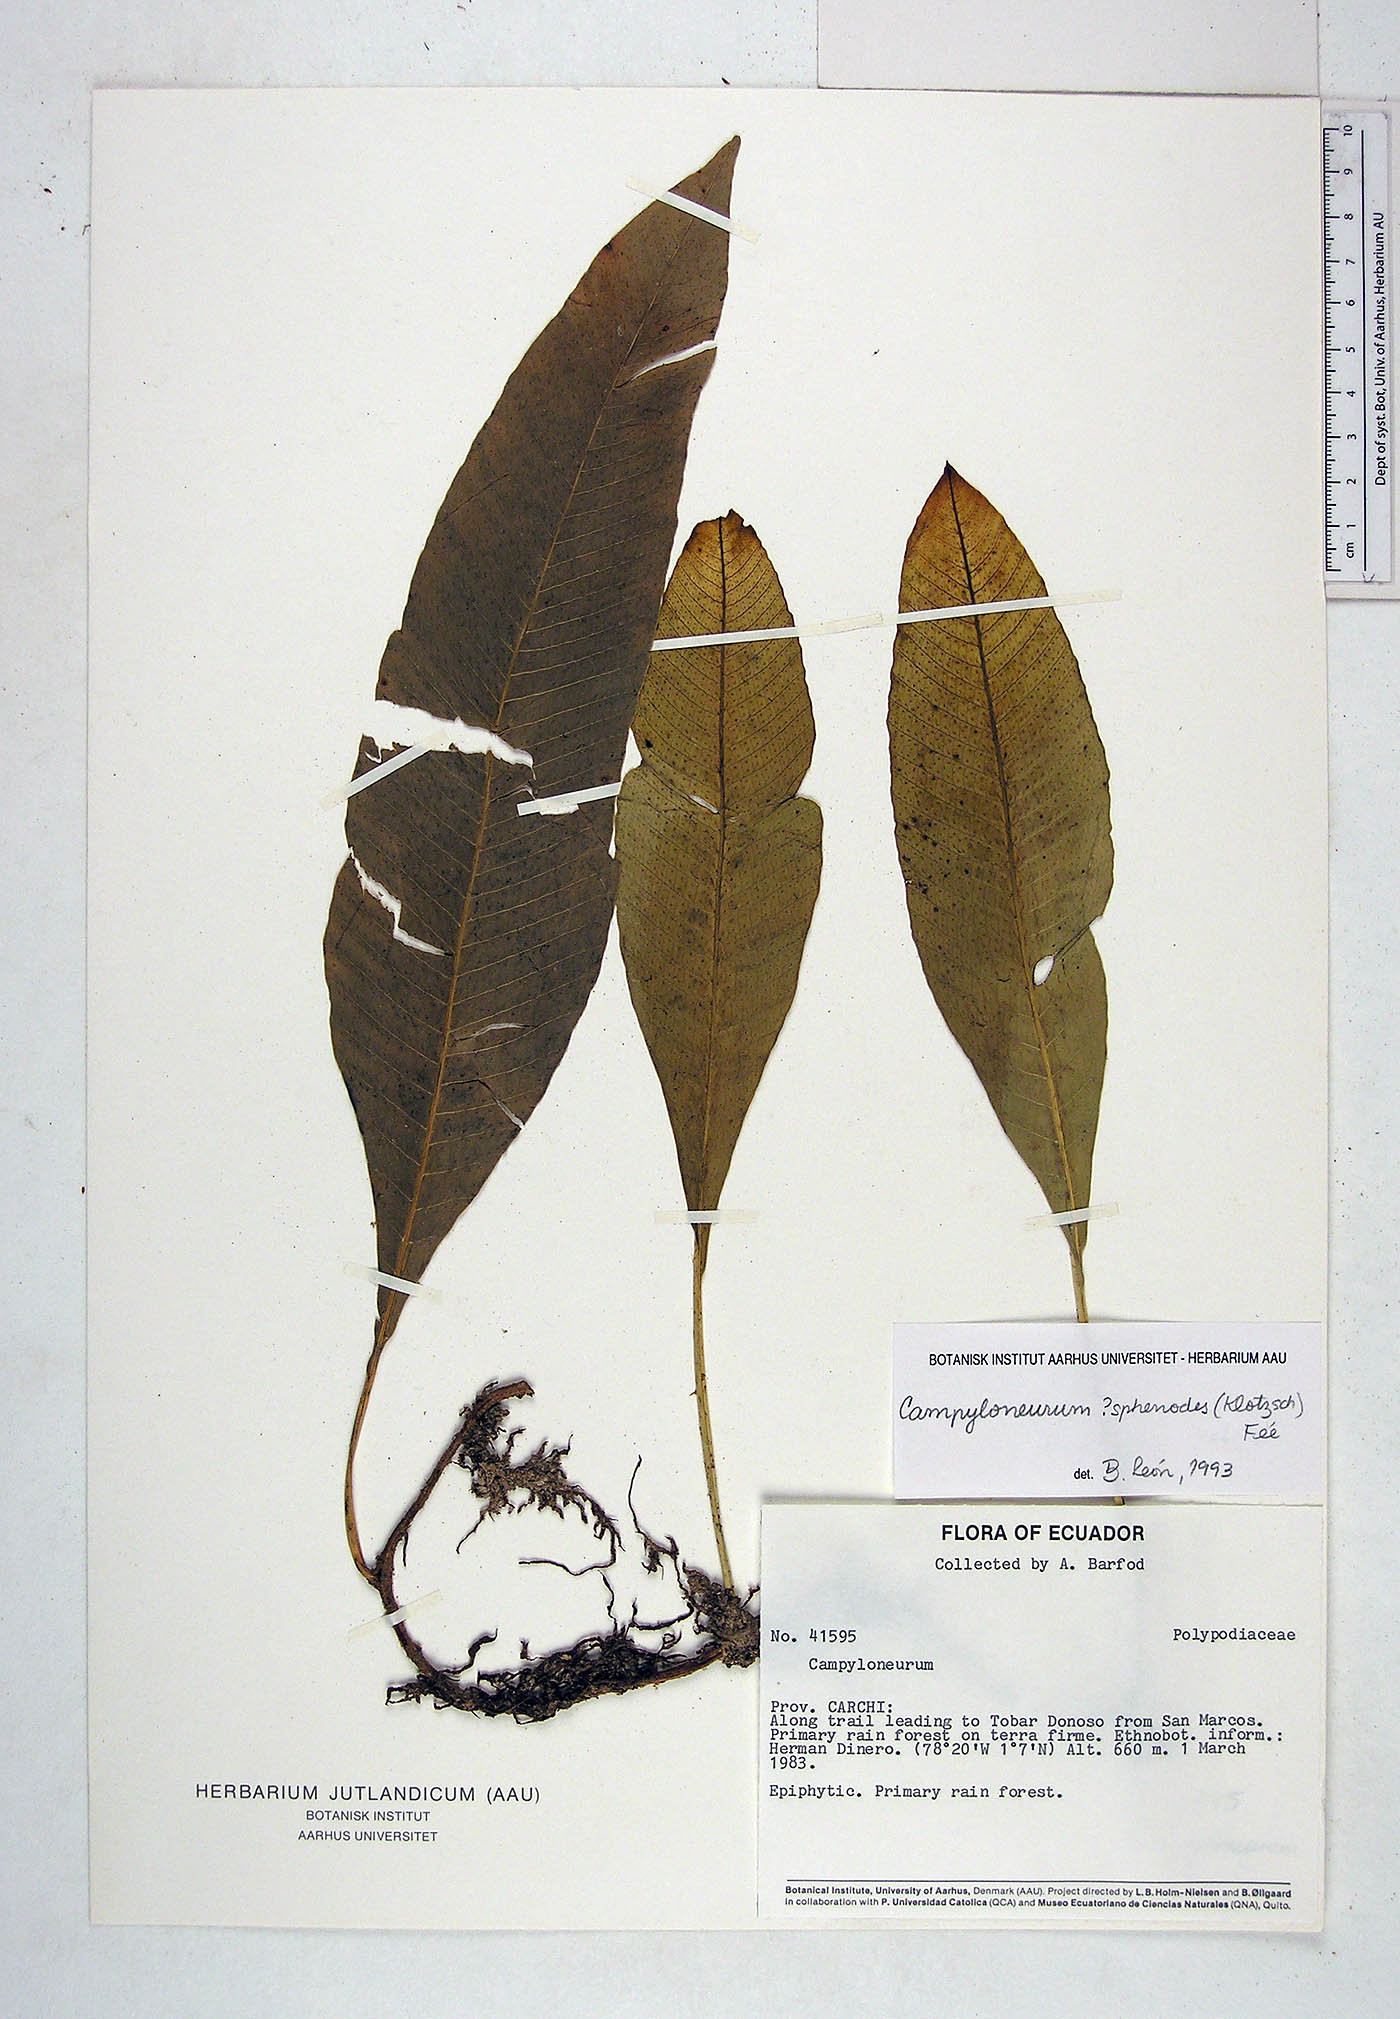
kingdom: Plantae
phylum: Tracheophyta
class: Polypodiopsida
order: Polypodiales
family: Polypodiaceae
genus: Campyloneurum
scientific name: Campyloneurum sphenodes
